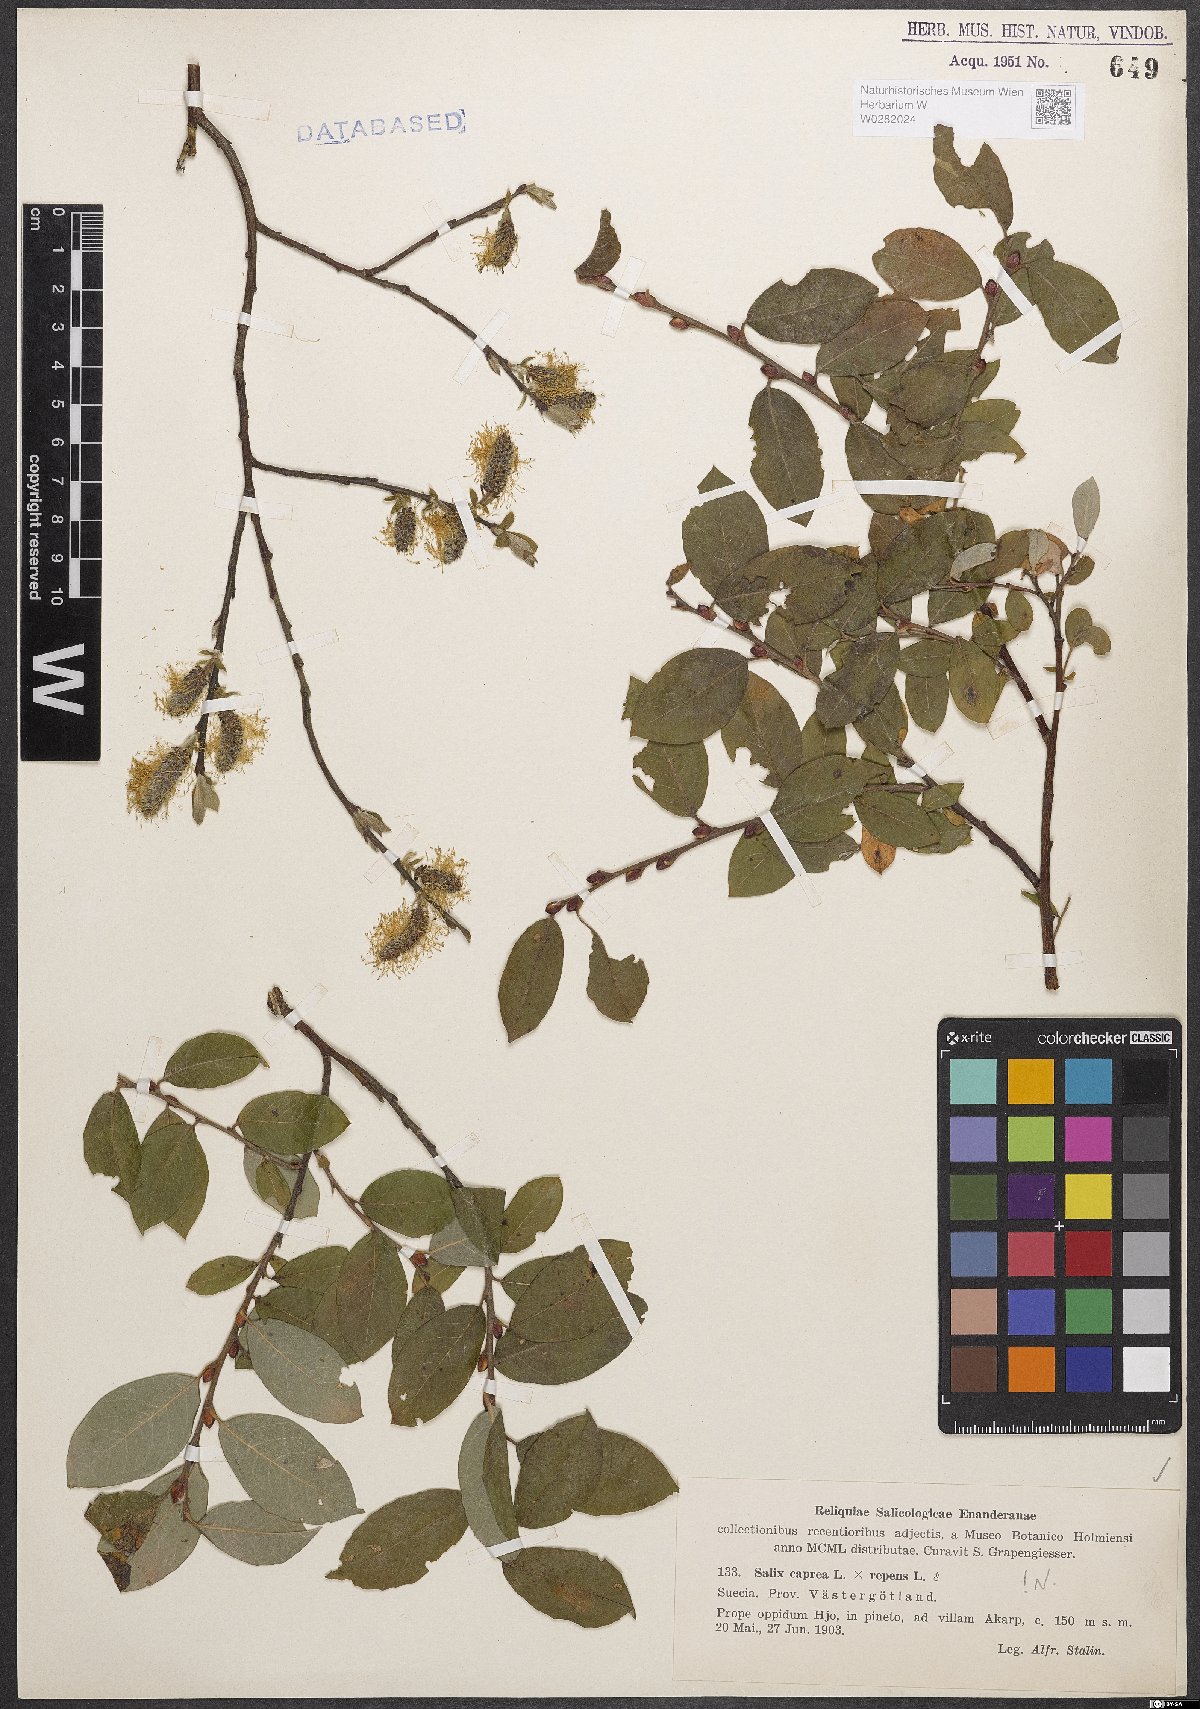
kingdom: Plantae
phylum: Tracheophyta
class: Magnoliopsida
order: Malpighiales
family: Salicaceae
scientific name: Salicaceae
